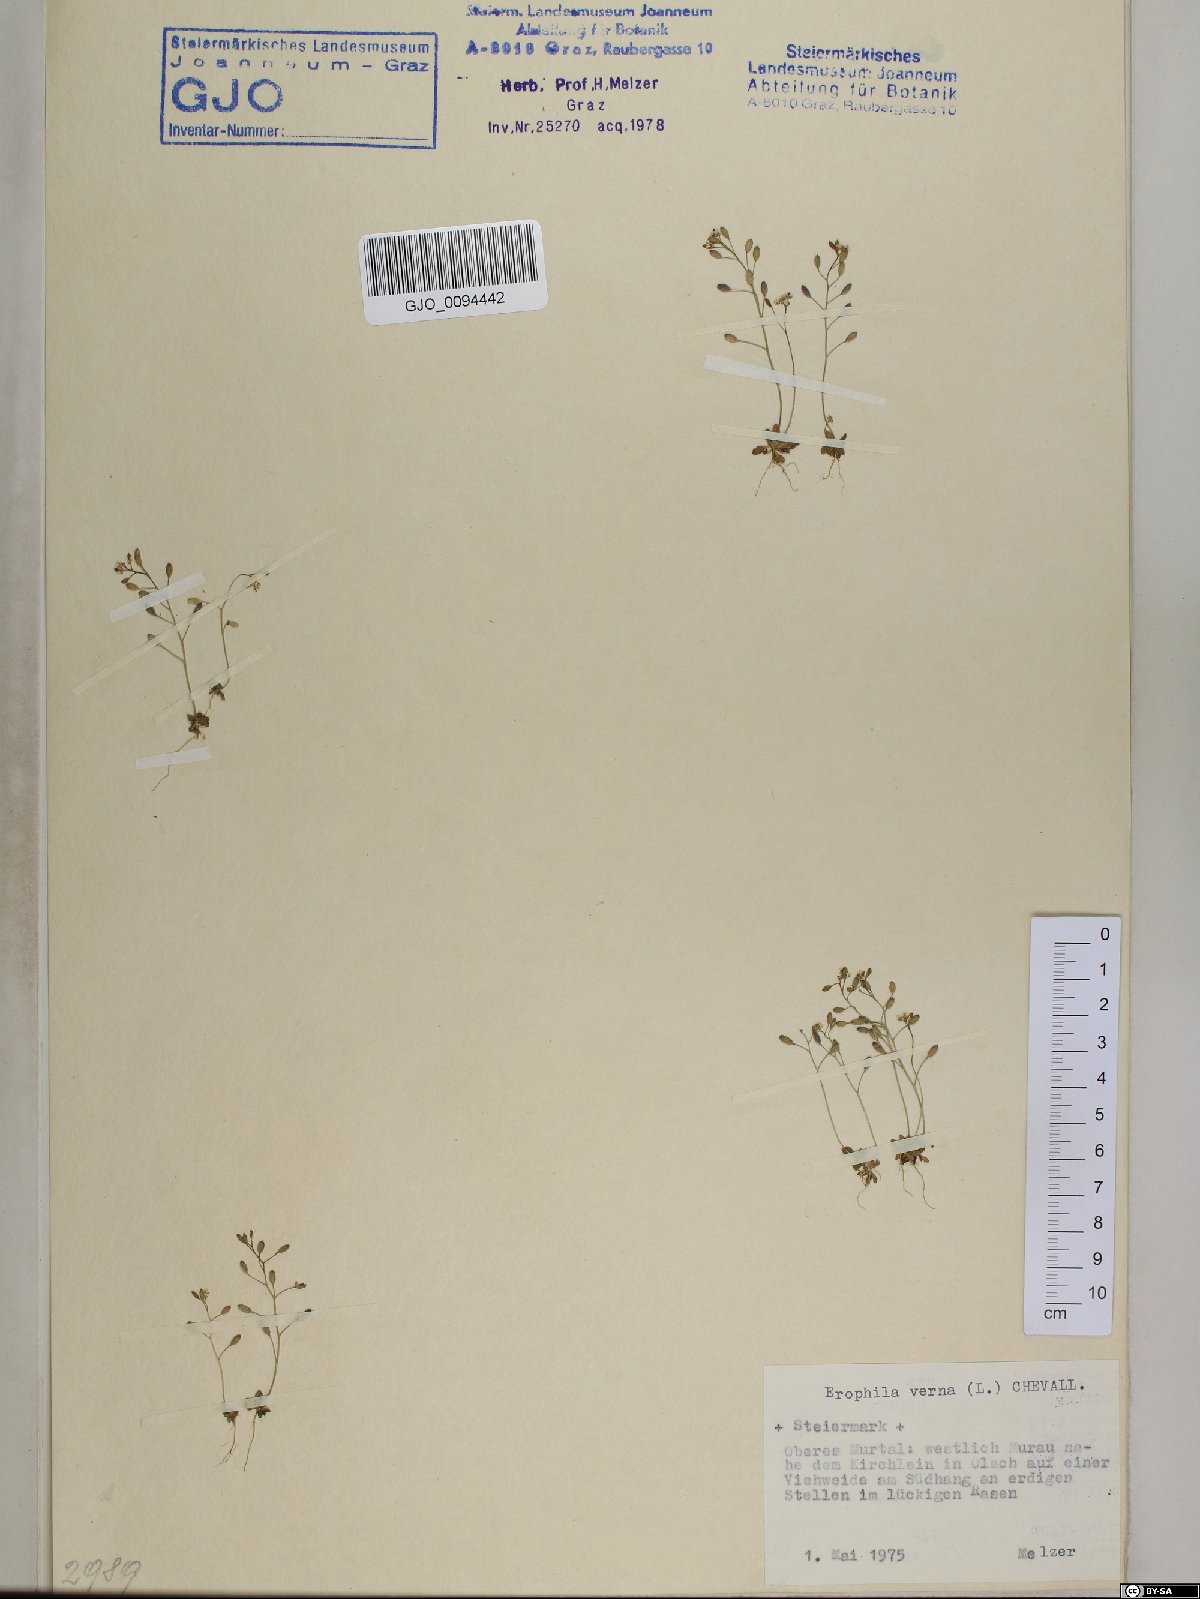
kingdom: Plantae
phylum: Tracheophyta
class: Magnoliopsida
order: Brassicales
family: Brassicaceae
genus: Draba
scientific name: Draba verna
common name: Spring draba
